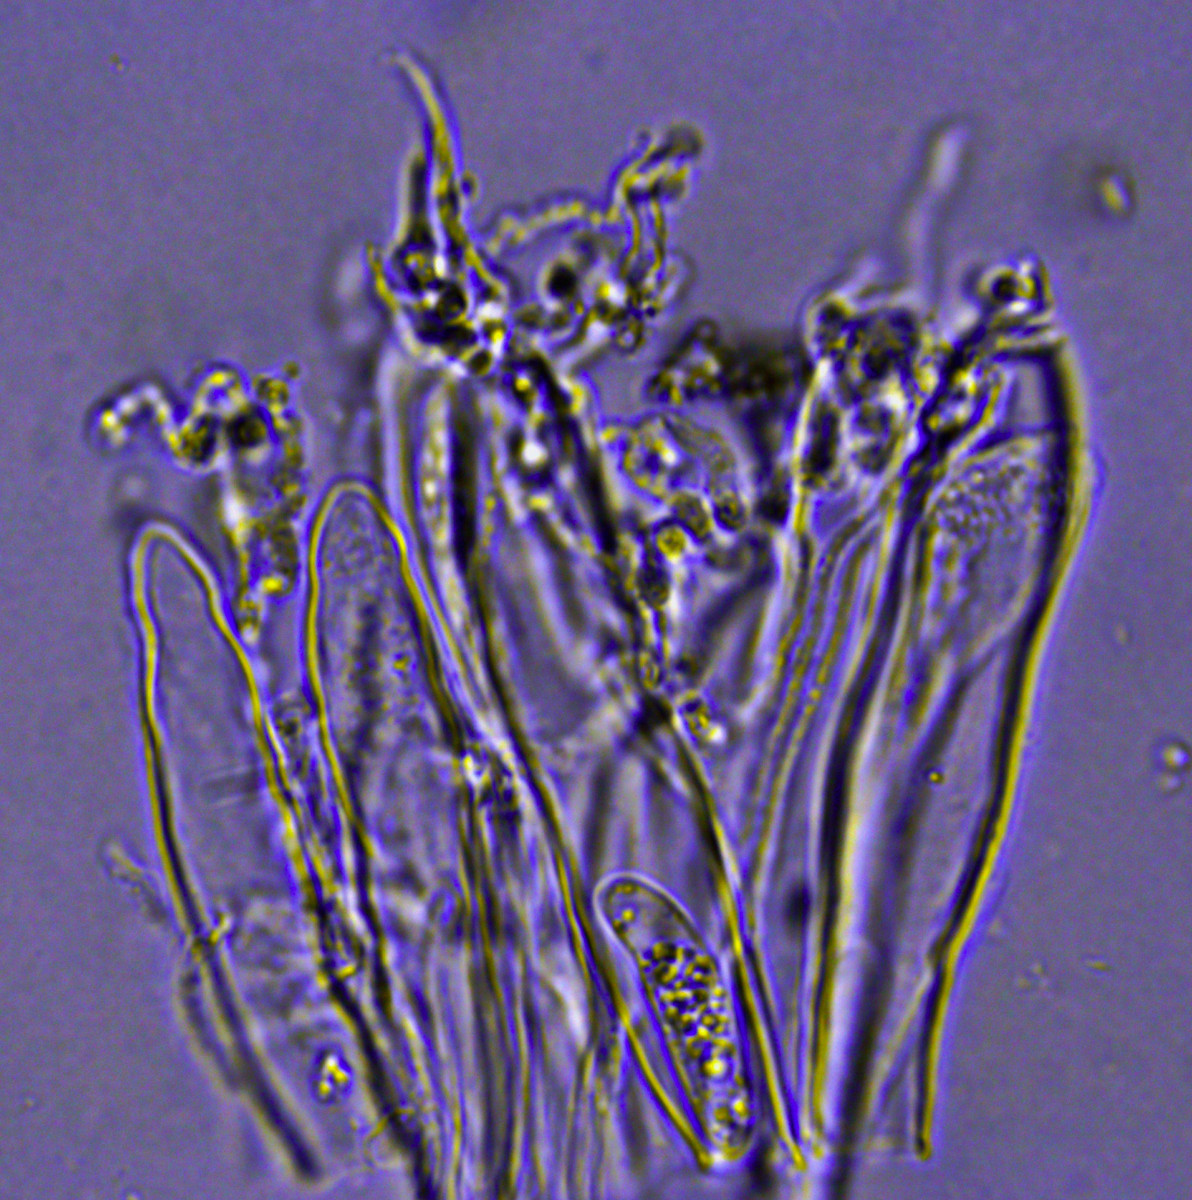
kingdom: Fungi
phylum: Ascomycota
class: Leotiomycetes
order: Helotiales
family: Hyaloscyphaceae
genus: Polydesmia
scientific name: Polydesmia pruinosa
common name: dunskive
